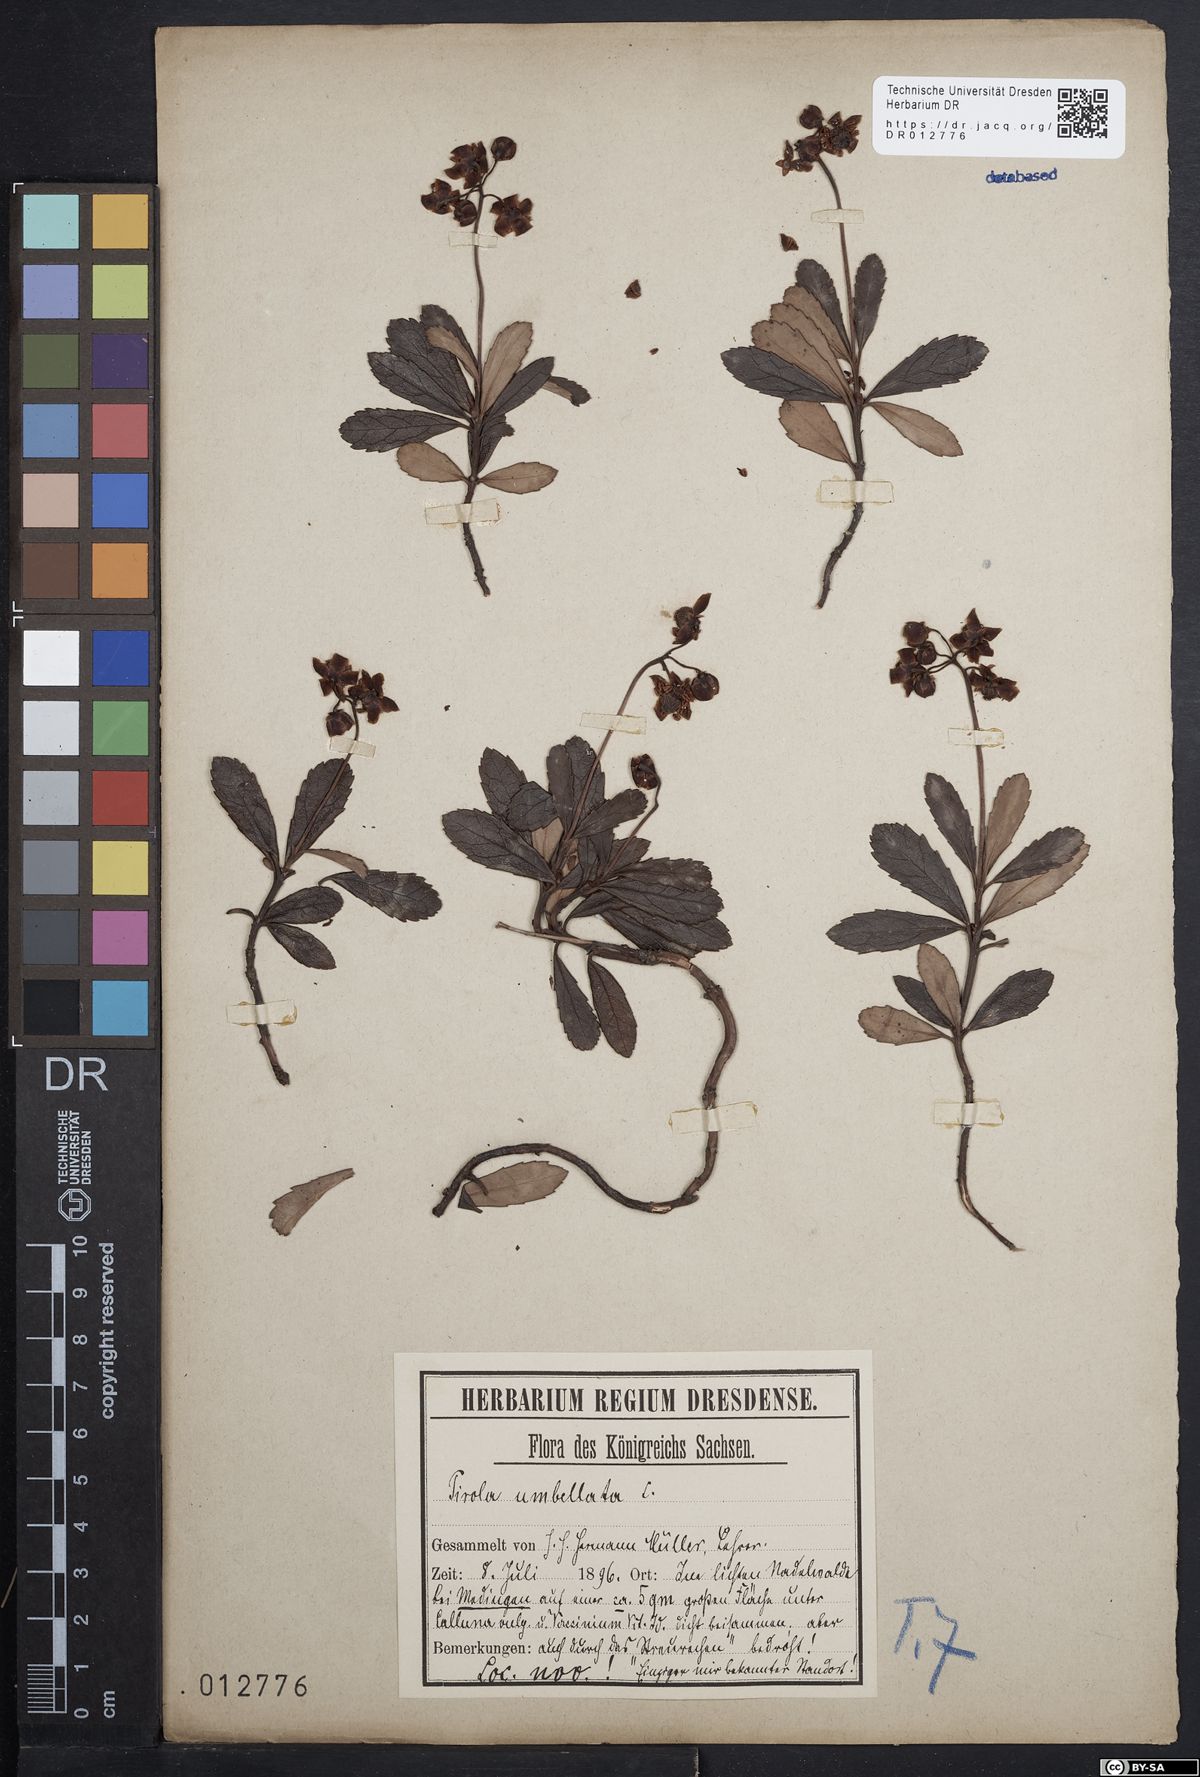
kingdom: Plantae
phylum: Tracheophyta
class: Magnoliopsida
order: Ericales
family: Ericaceae
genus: Chimaphila
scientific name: Chimaphila umbellata
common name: Pipsissewa
